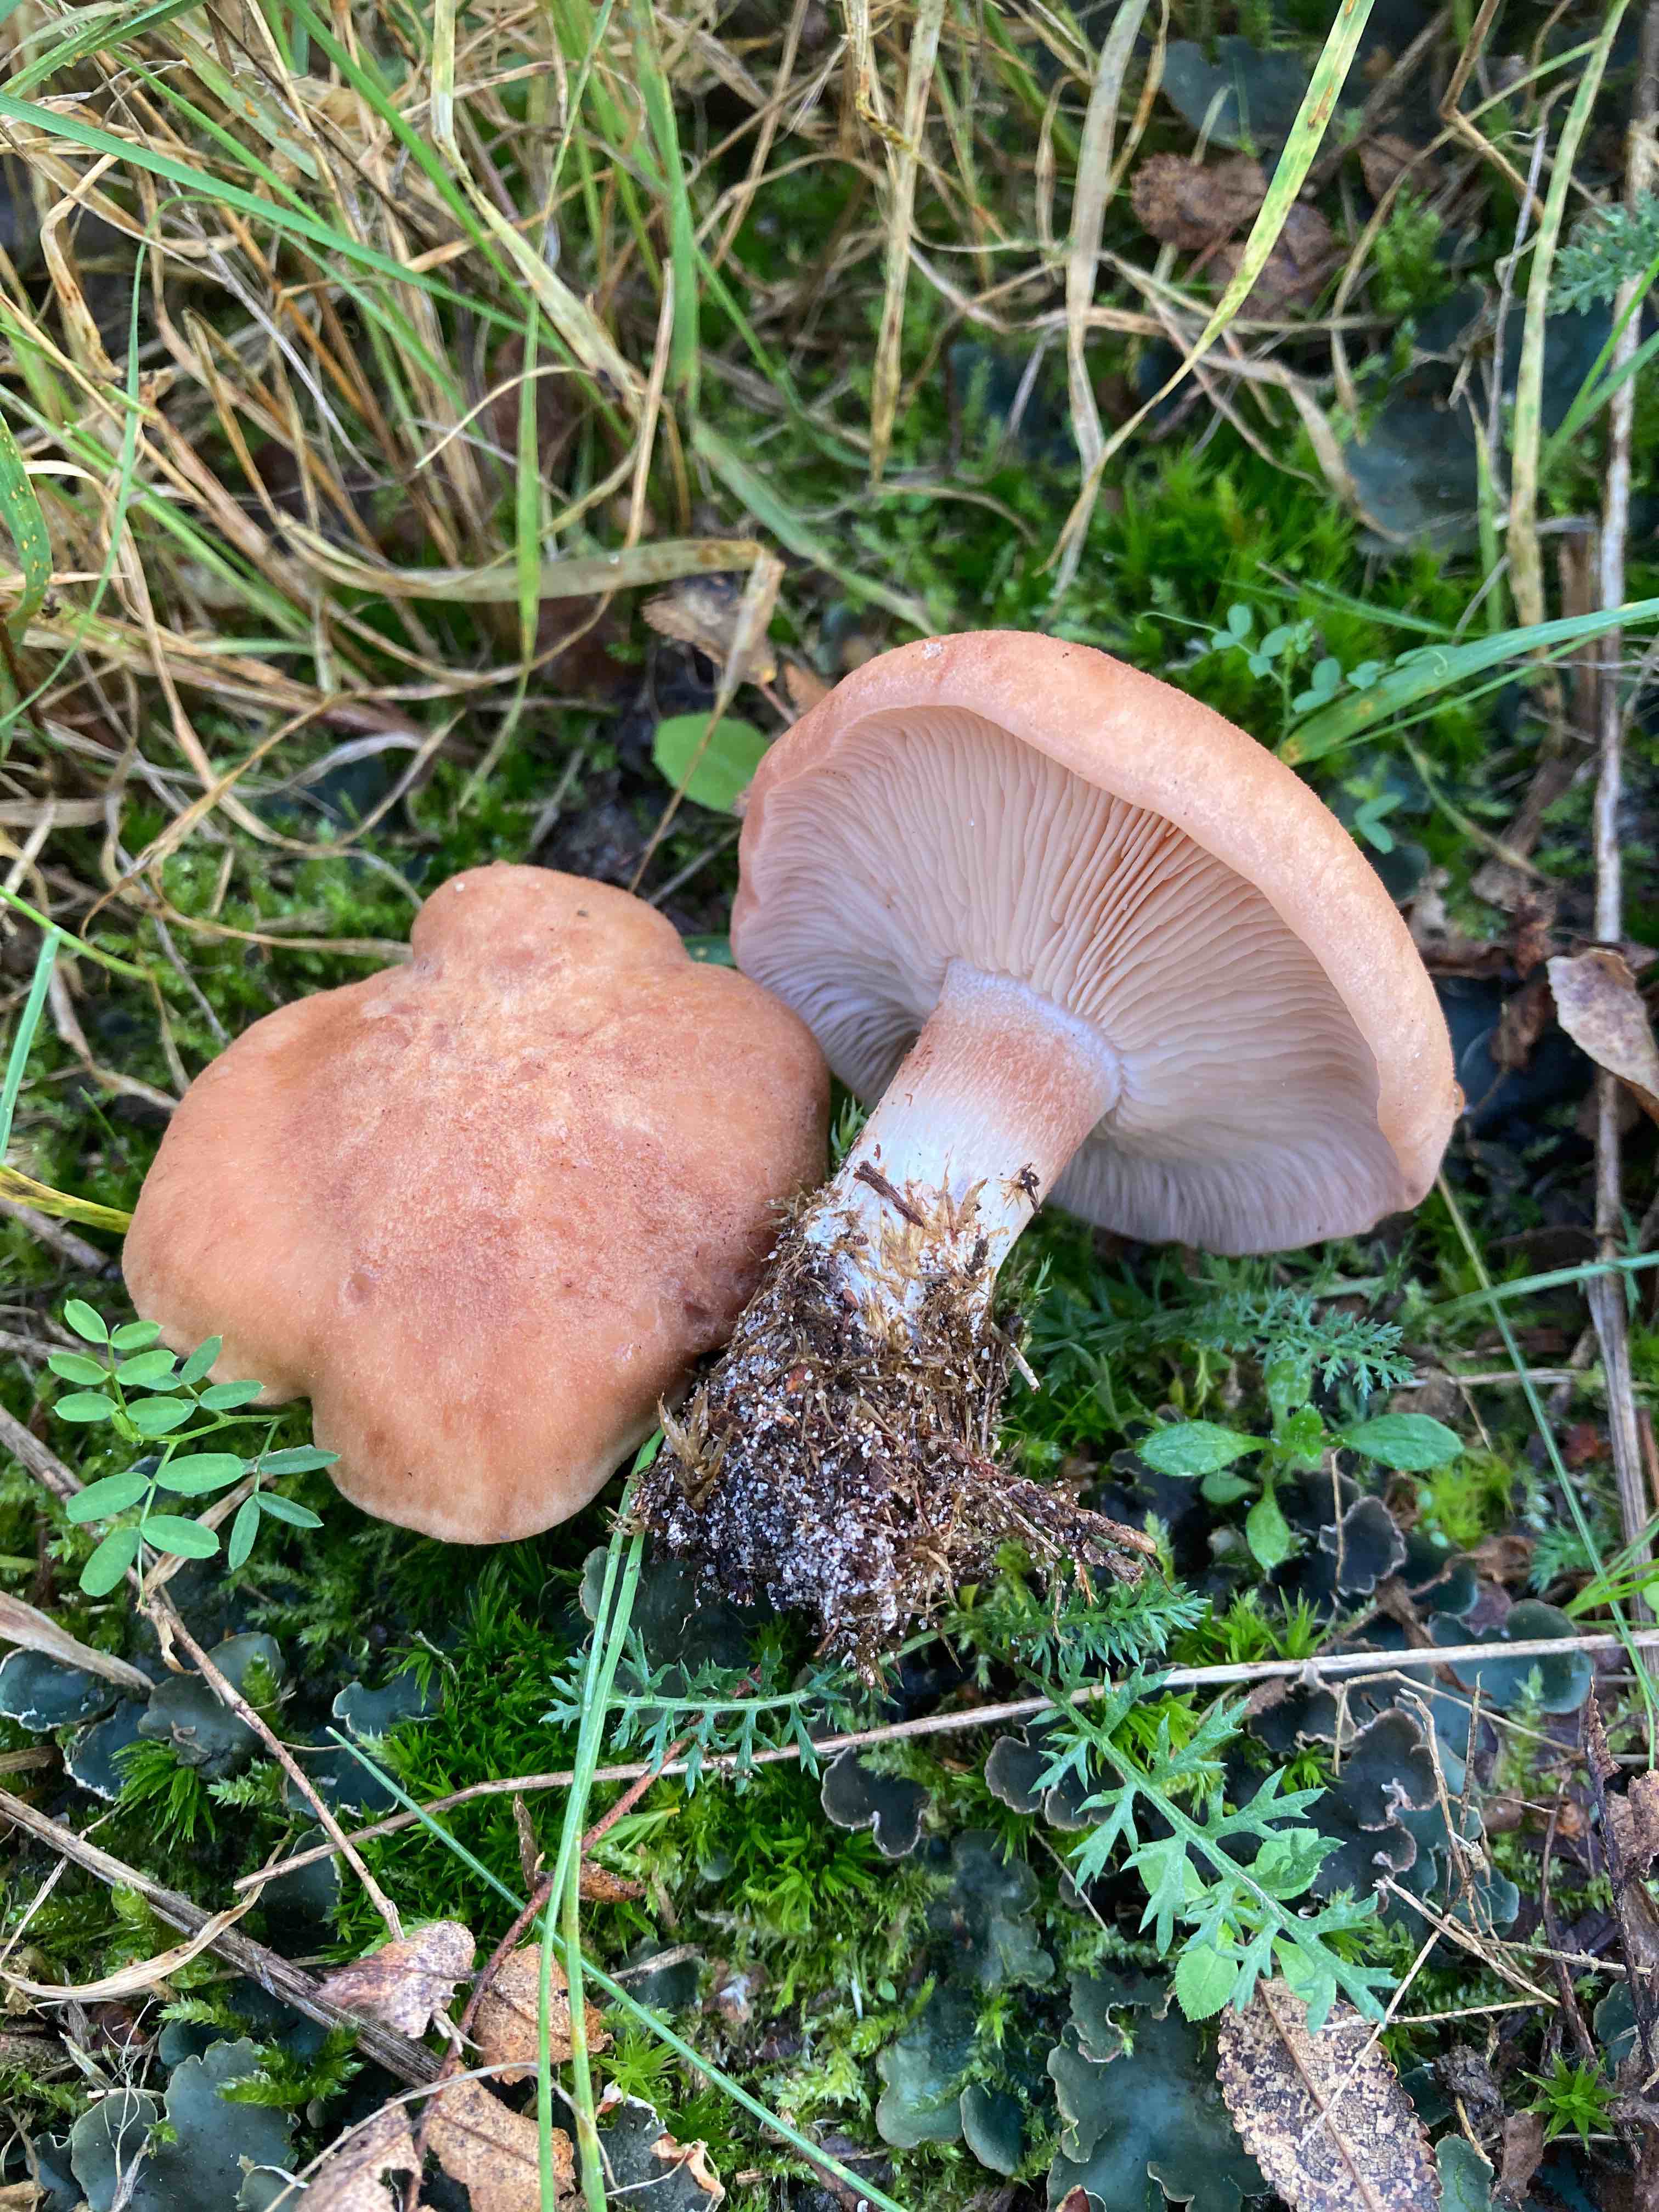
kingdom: Fungi
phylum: Basidiomycota
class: Agaricomycetes
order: Agaricales
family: Entolomataceae
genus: Clitopilus
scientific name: Clitopilus geminus
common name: kødfarvet troldhat
